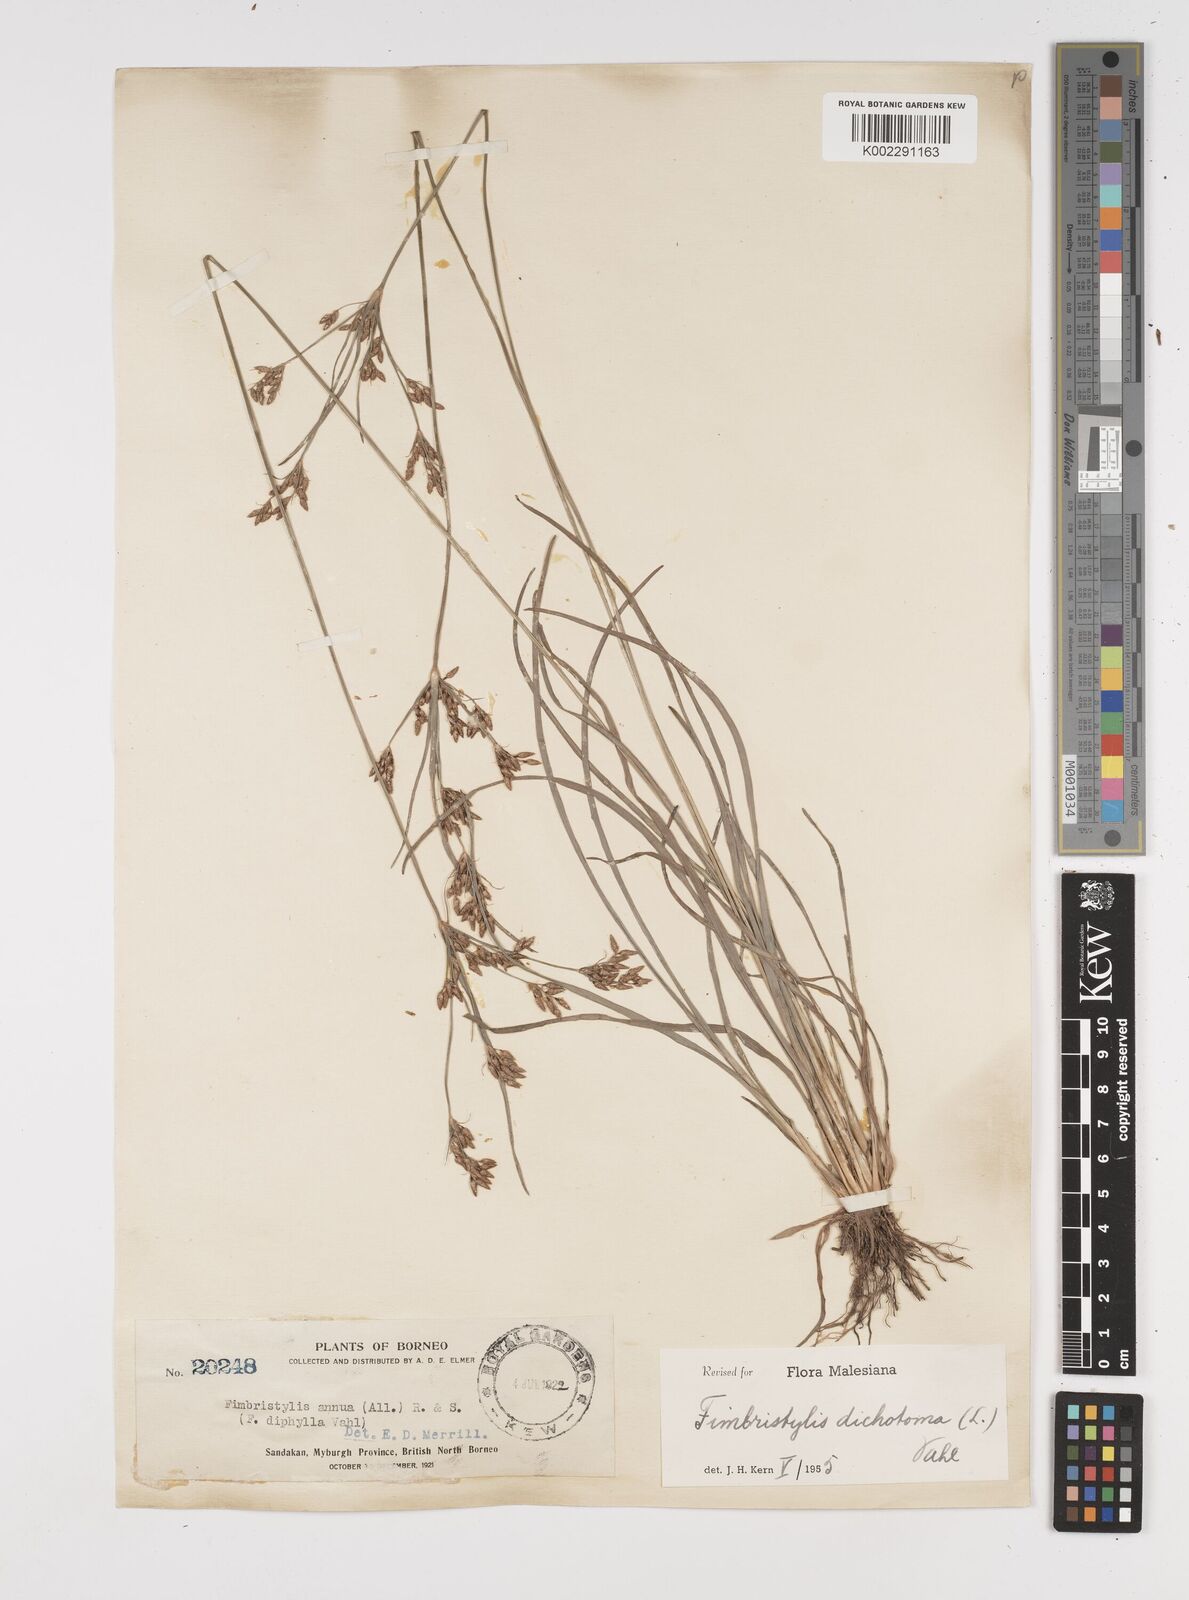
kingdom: Plantae
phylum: Tracheophyta
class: Liliopsida
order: Poales
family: Cyperaceae
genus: Fimbristylis
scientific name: Fimbristylis dichotoma
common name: Forked fimbry
